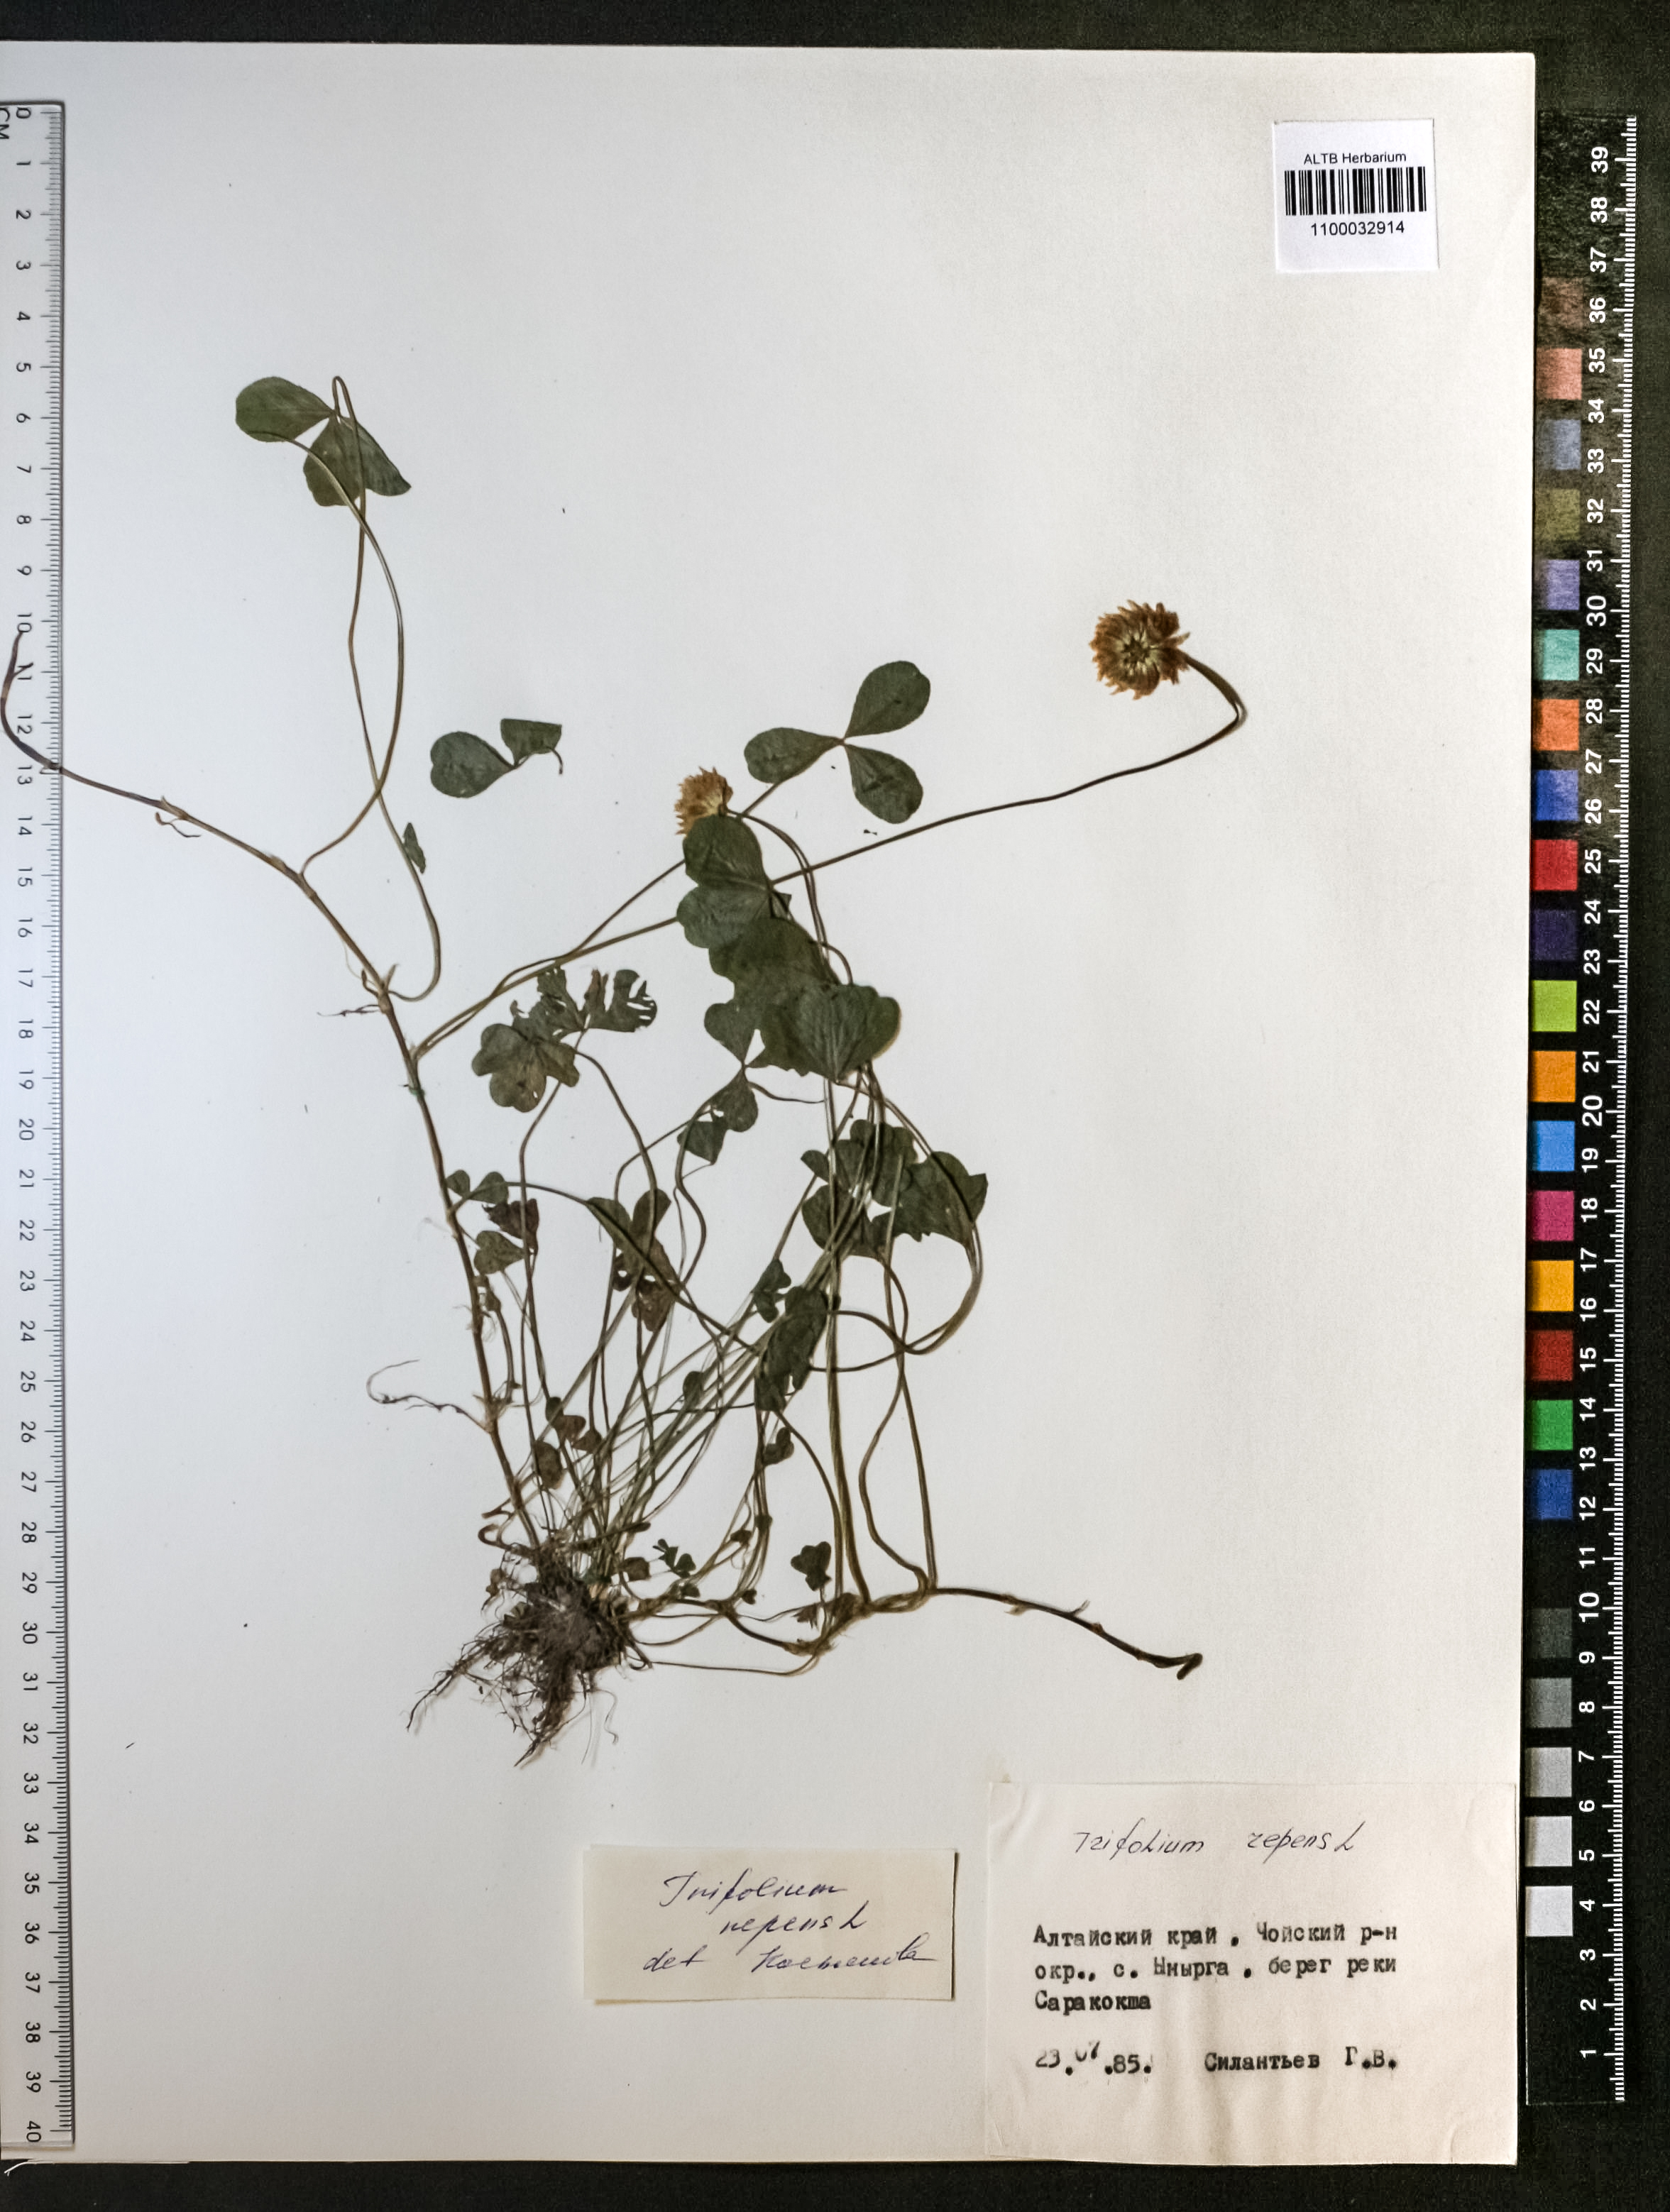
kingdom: Plantae
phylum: Tracheophyta
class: Magnoliopsida
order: Fabales
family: Fabaceae
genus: Trifolium
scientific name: Trifolium repens
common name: White clover
